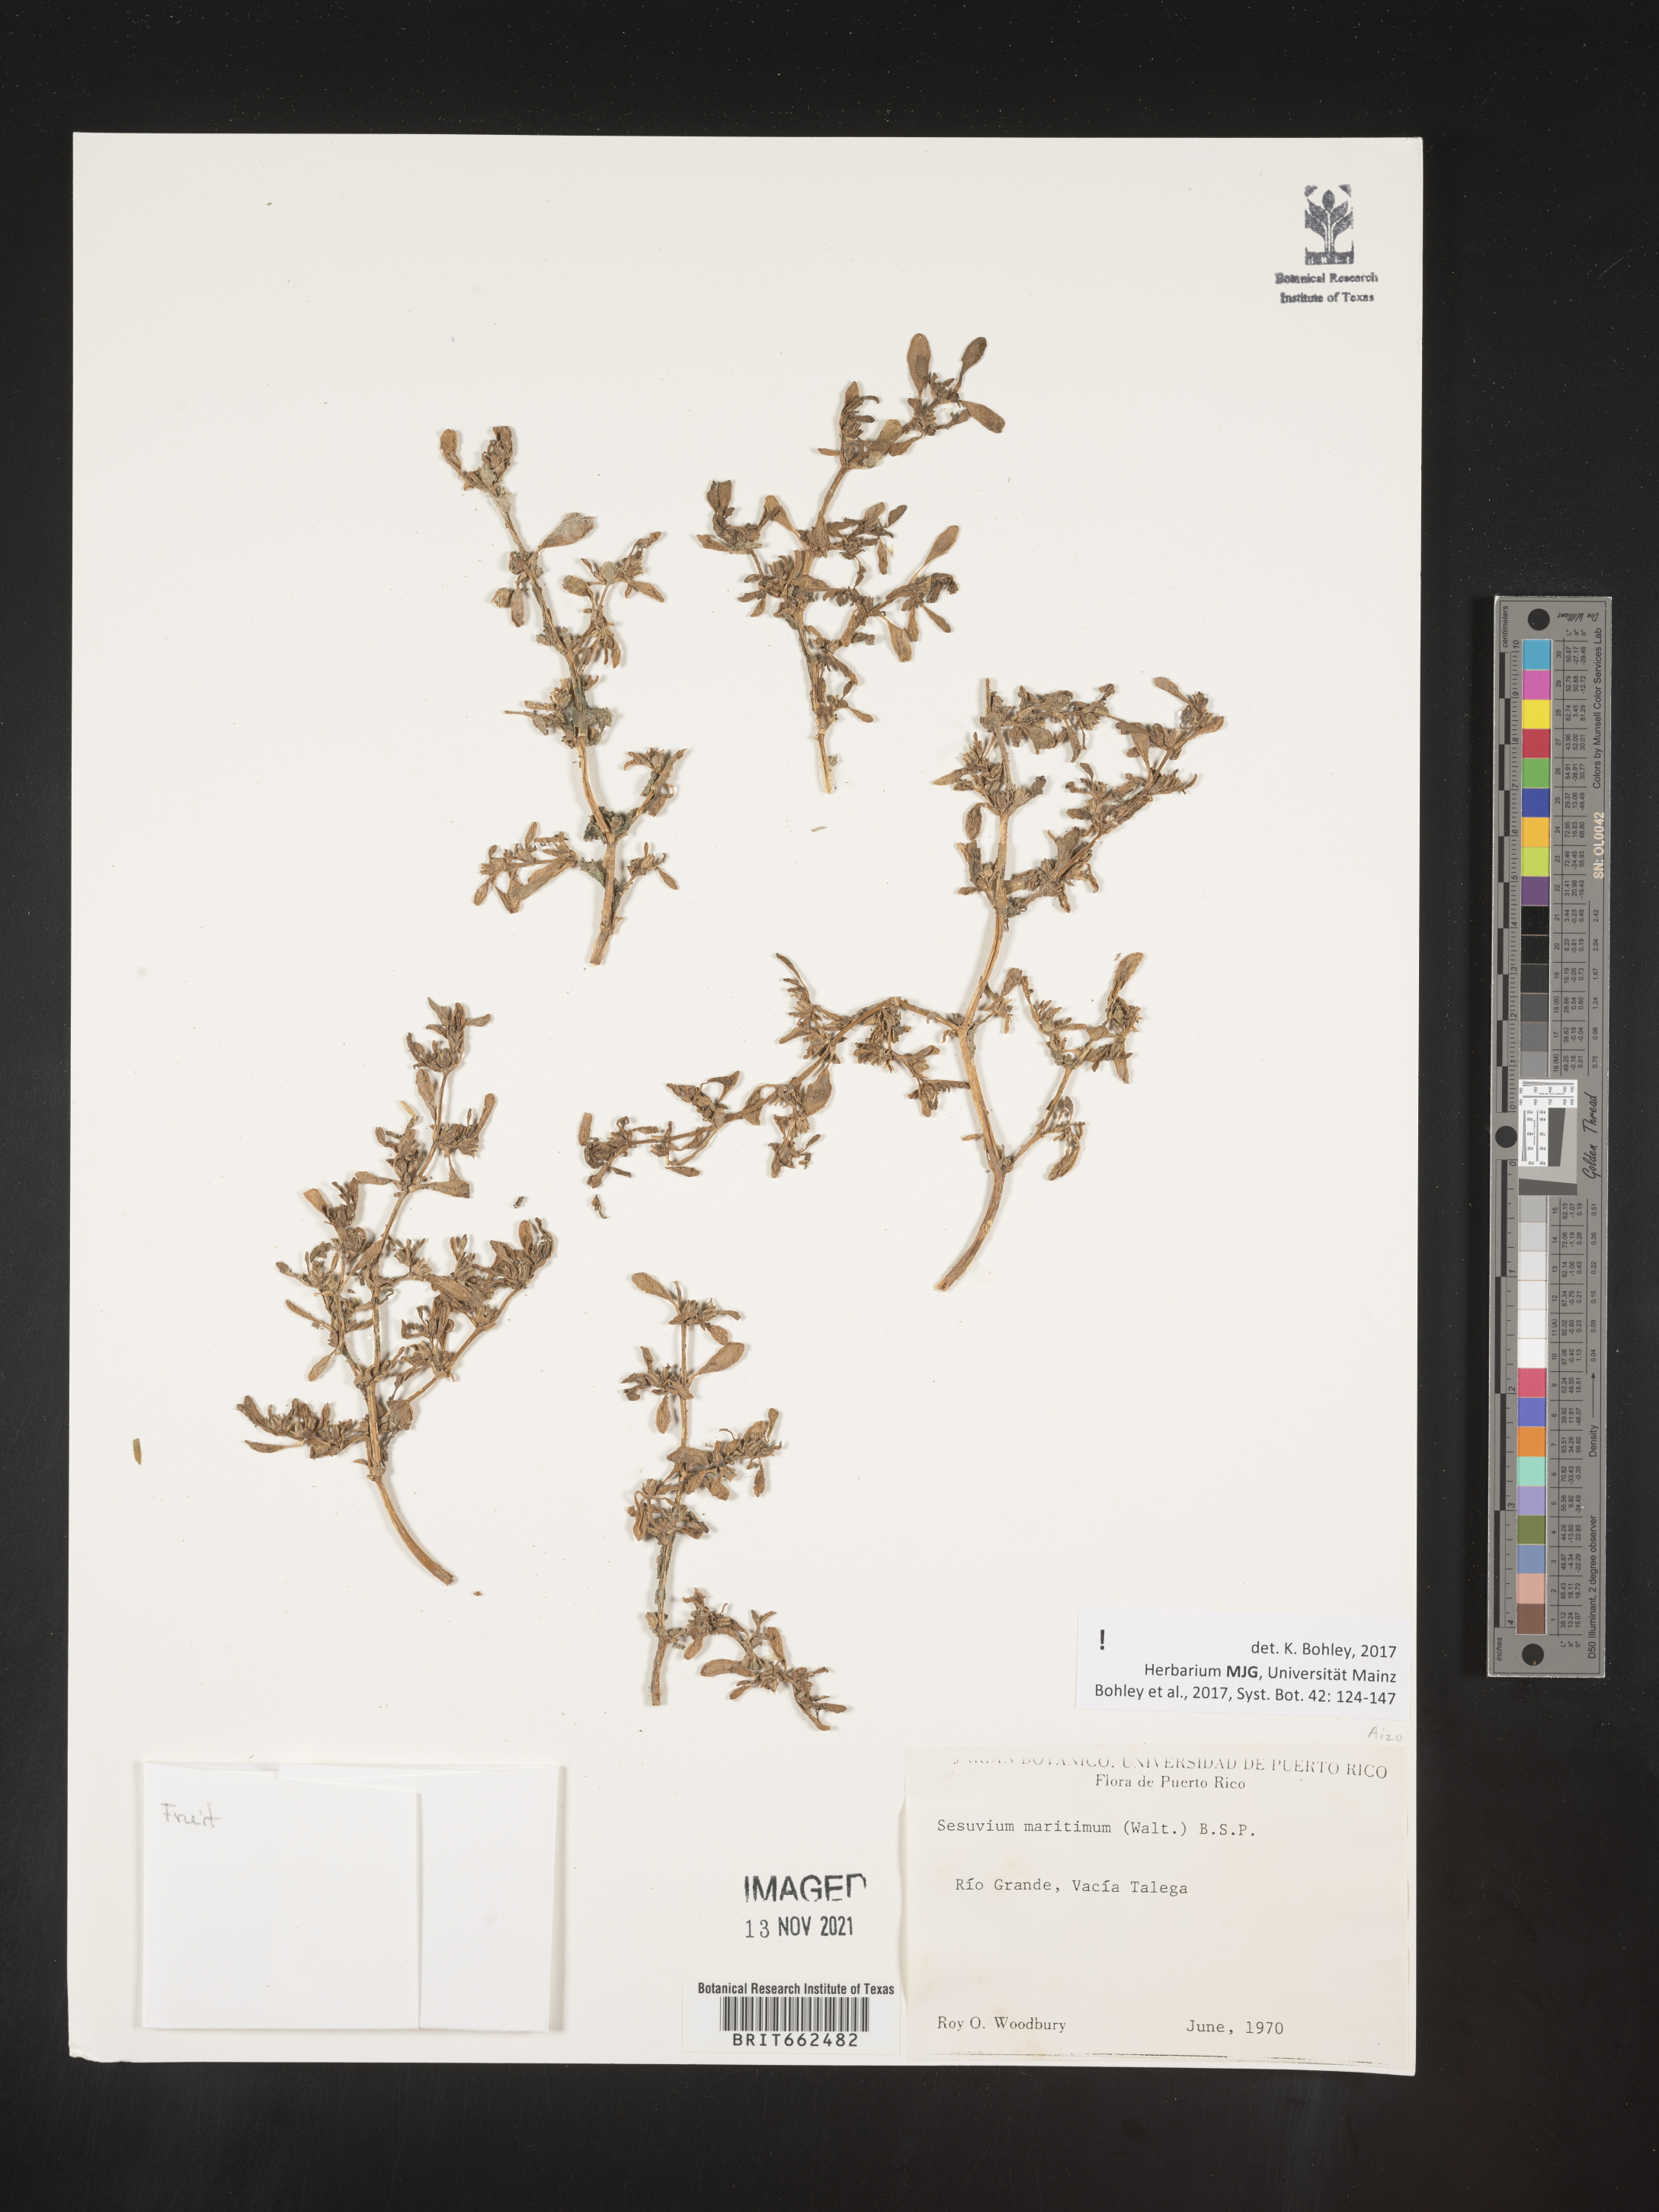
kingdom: Plantae
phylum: Tracheophyta
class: Magnoliopsida
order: Caryophyllales
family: Aizoaceae
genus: Sesuvium
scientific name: Sesuvium
